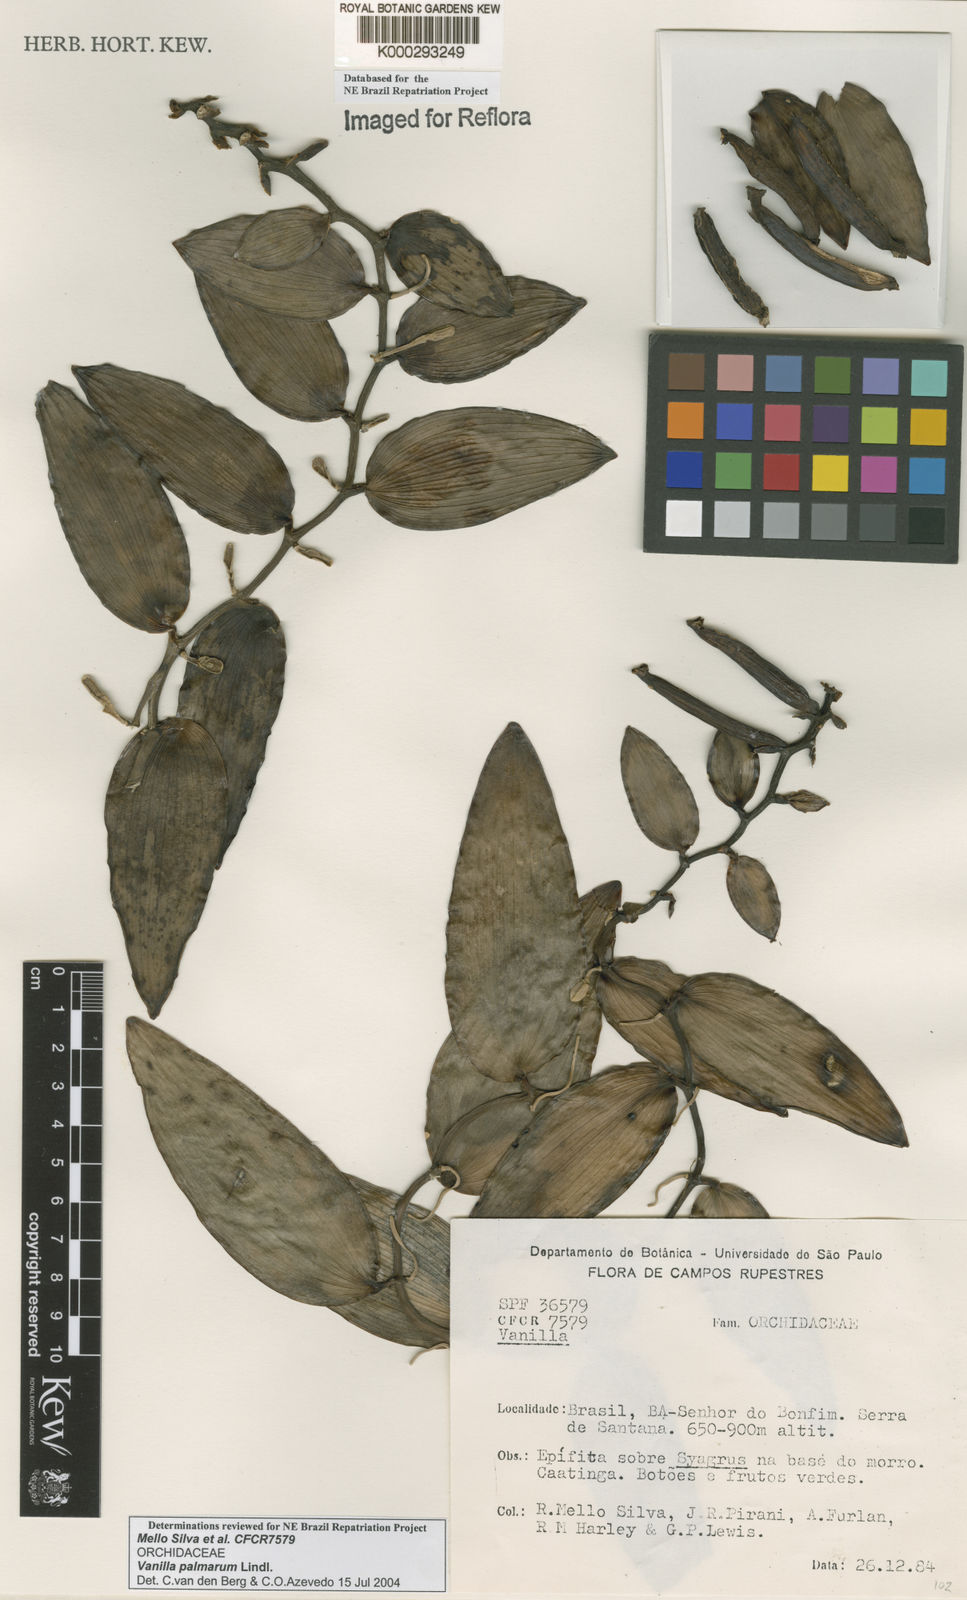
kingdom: Plantae
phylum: Tracheophyta
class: Liliopsida
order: Asparagales
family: Orchidaceae
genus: Vanilla
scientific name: Vanilla palmarum
